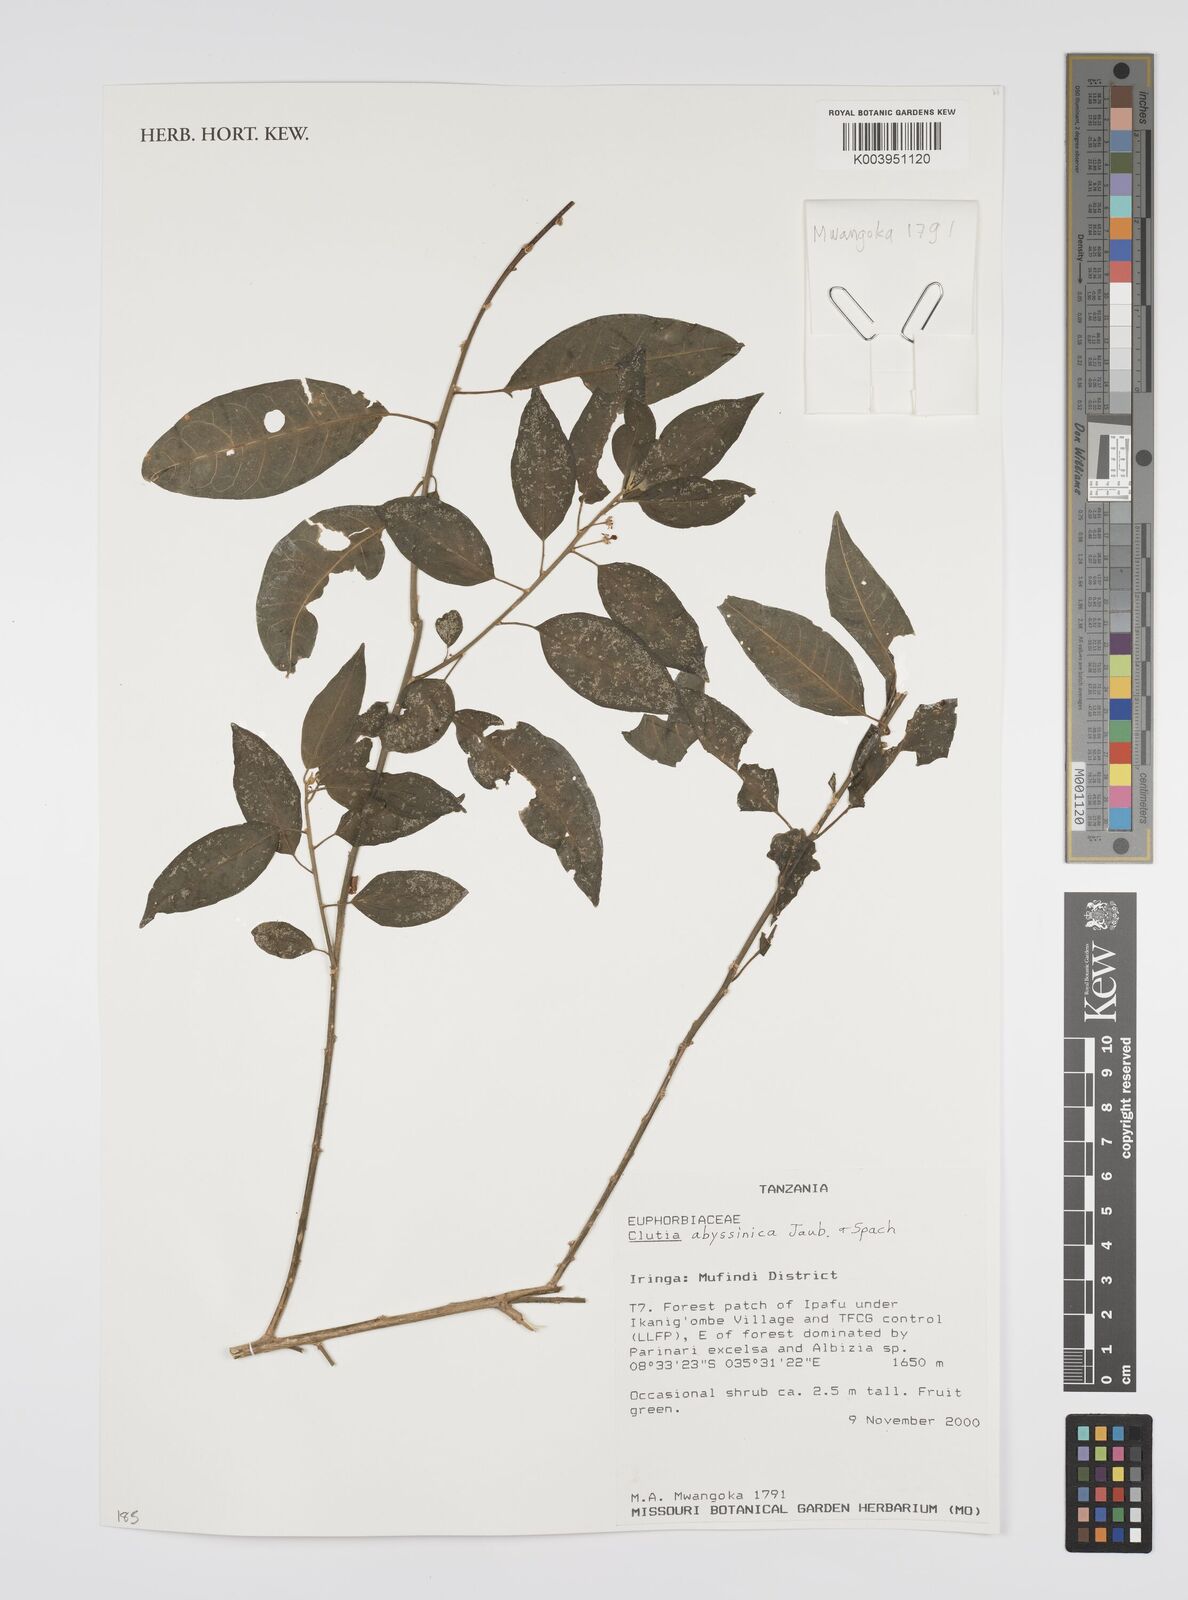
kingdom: Plantae
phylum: Tracheophyta
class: Magnoliopsida
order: Malpighiales
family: Peraceae
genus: Clutia
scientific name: Clutia abyssinica
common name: Large lightning bush
